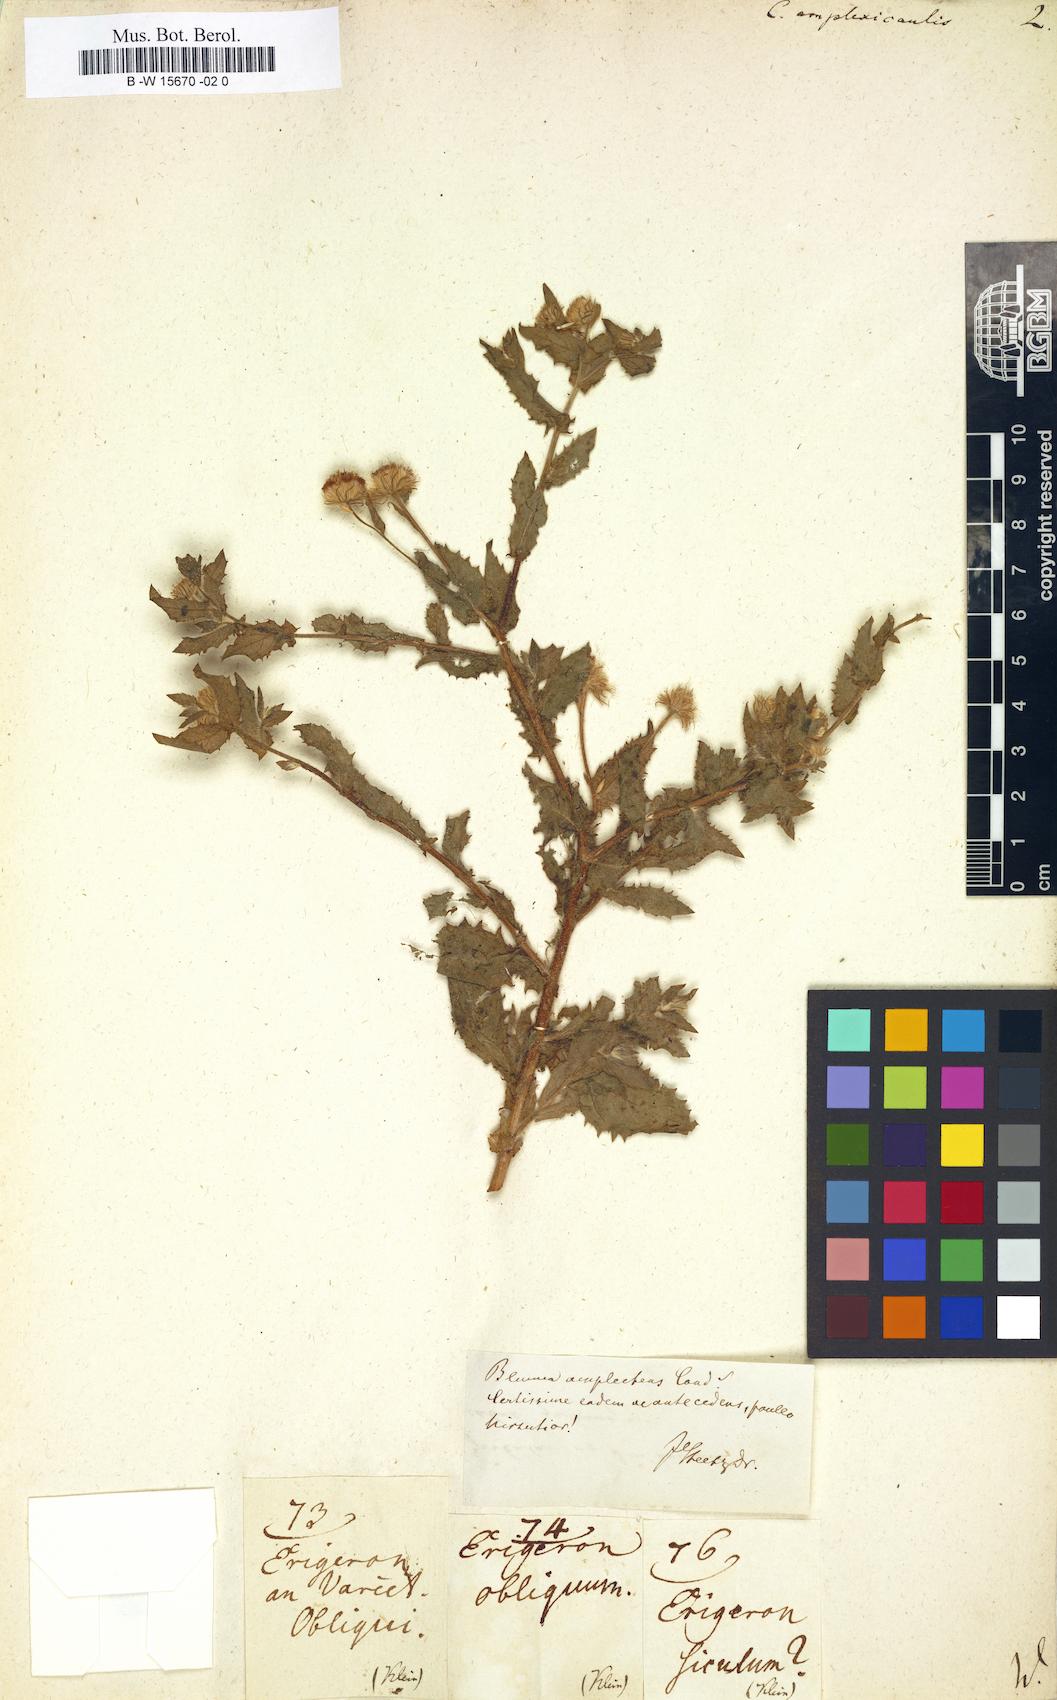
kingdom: Plantae
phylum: Tracheophyta
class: Magnoliopsida
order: Asterales
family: Asteraceae
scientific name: Asteraceae
